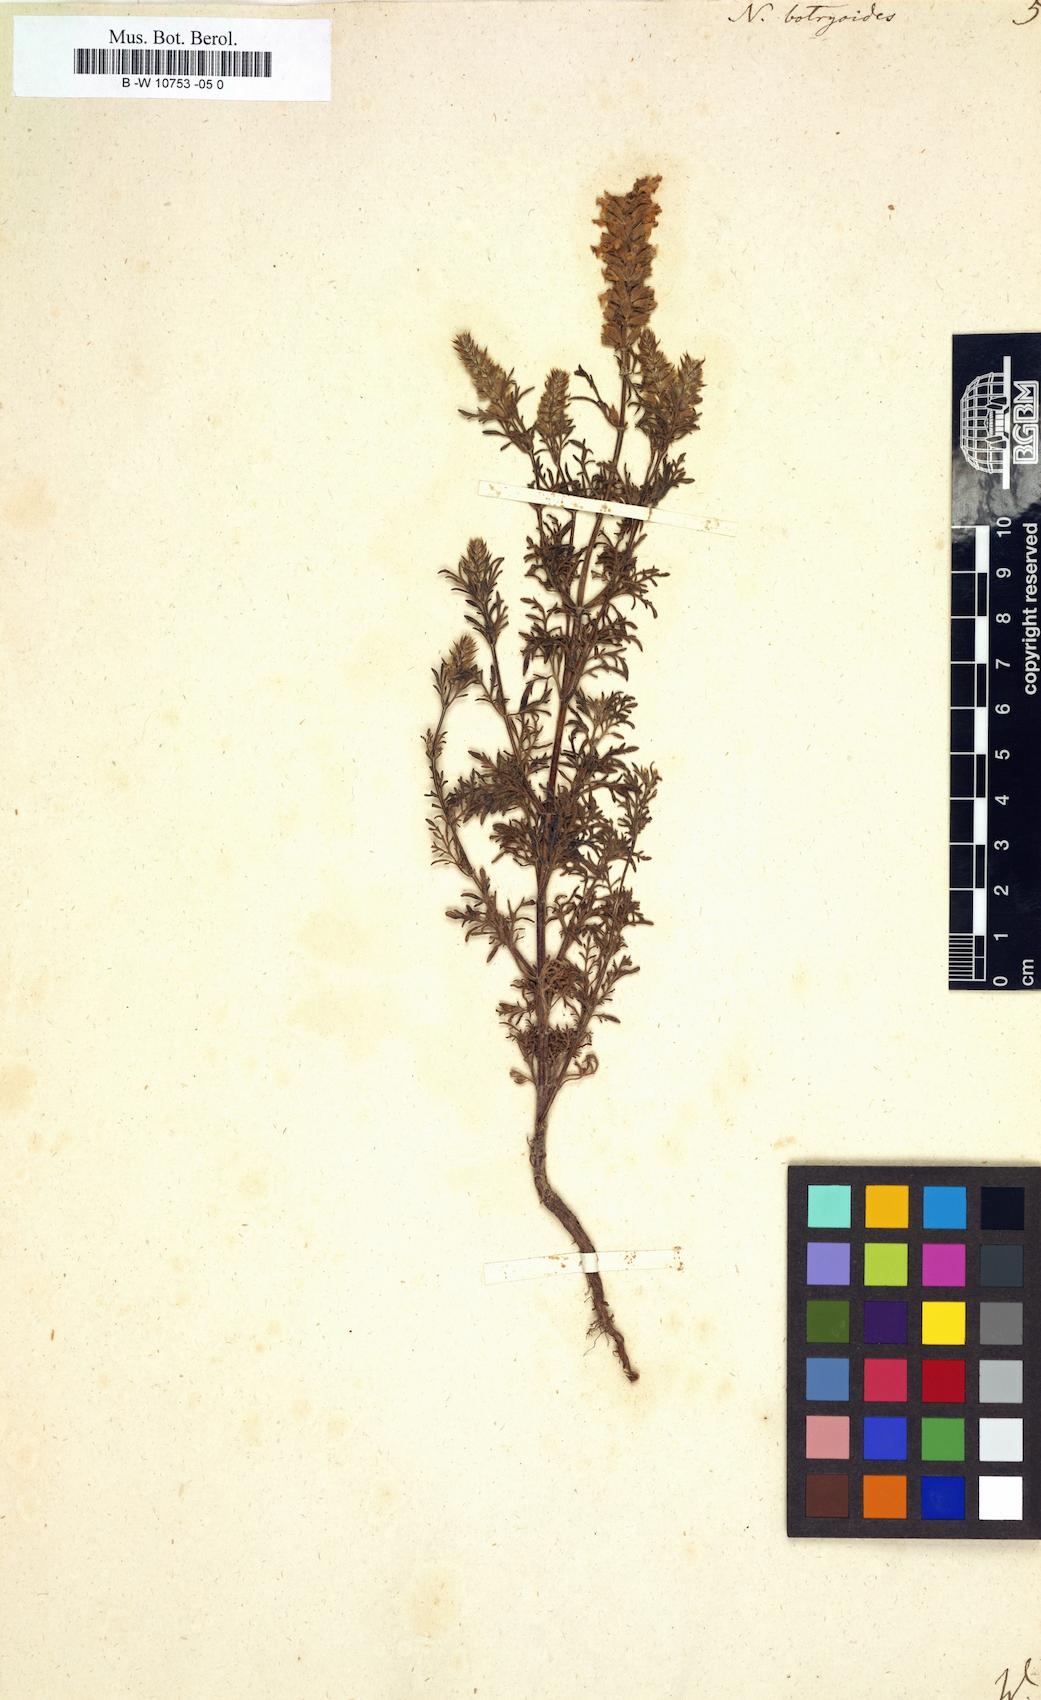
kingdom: Plantae
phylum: Tracheophyta
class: Magnoliopsida
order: Lamiales
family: Lamiaceae
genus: Nepeta
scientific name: Nepeta annua
